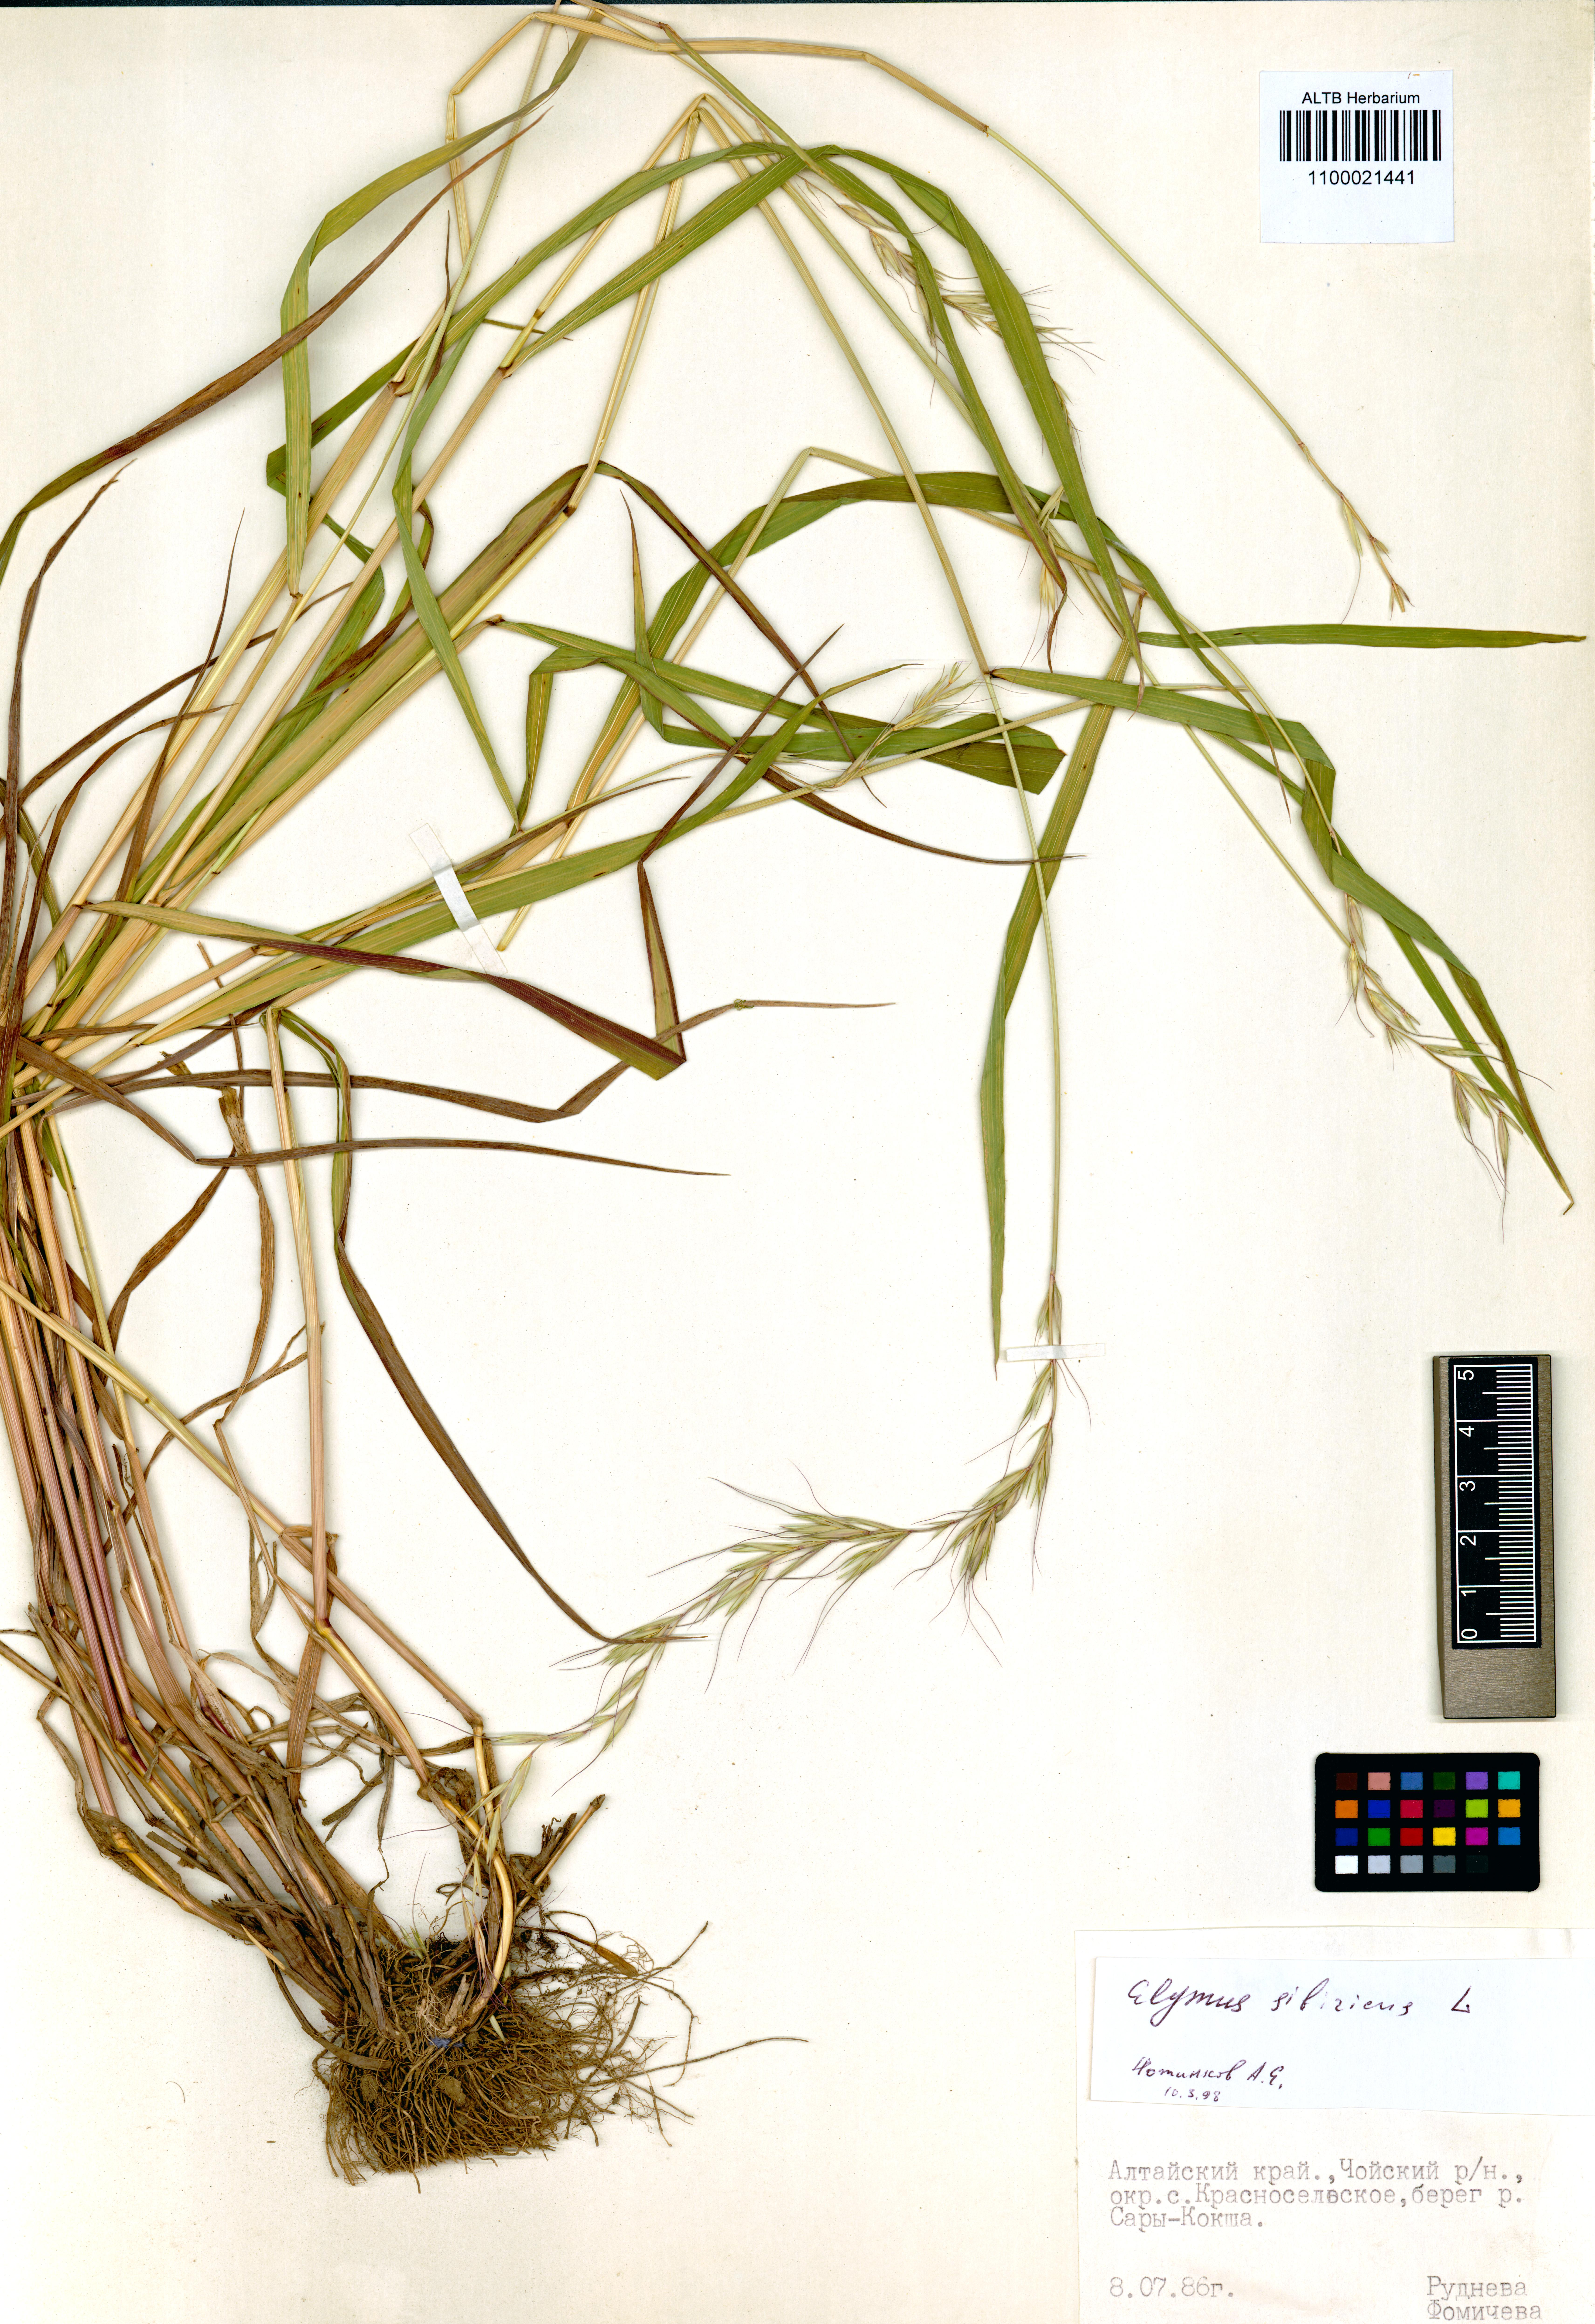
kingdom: Plantae
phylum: Tracheophyta
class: Liliopsida
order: Poales
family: Poaceae
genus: Elymus
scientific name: Elymus sibiricus
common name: Siberian wildrye
